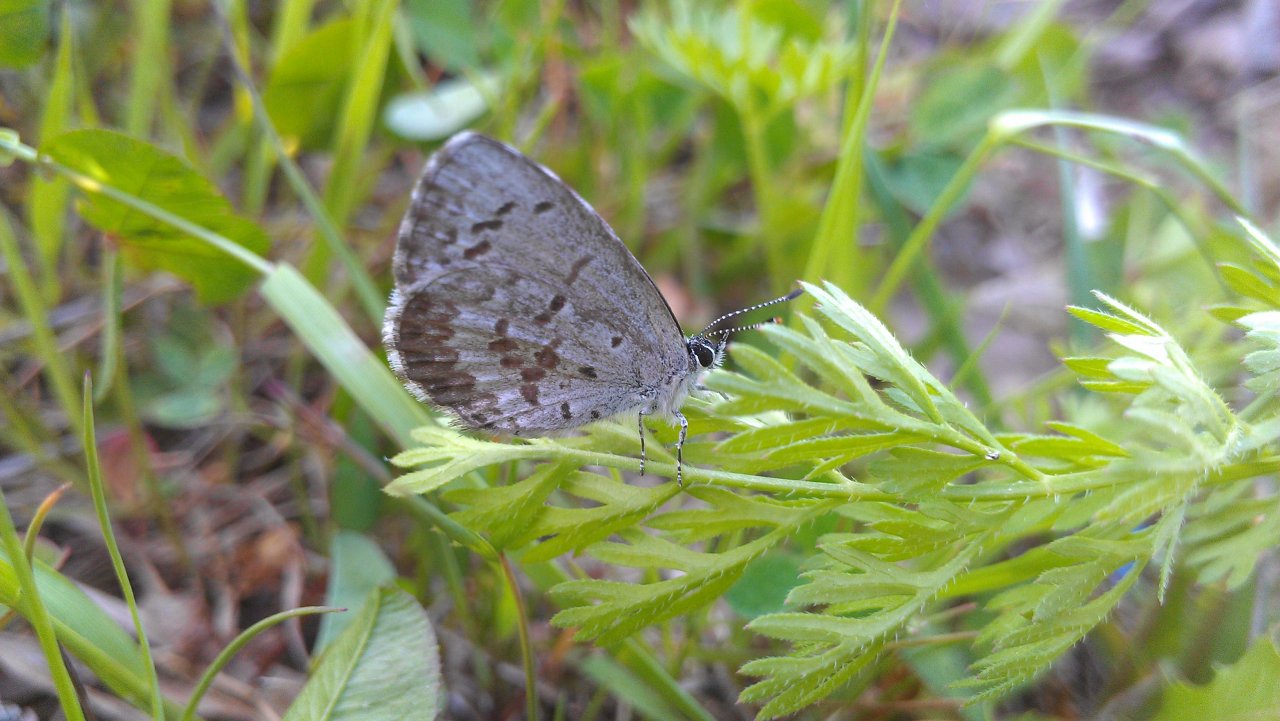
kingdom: Animalia
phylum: Arthropoda
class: Insecta
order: Lepidoptera
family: Lycaenidae
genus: Celastrina
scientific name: Celastrina lucia
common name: Northern Spring Azure
